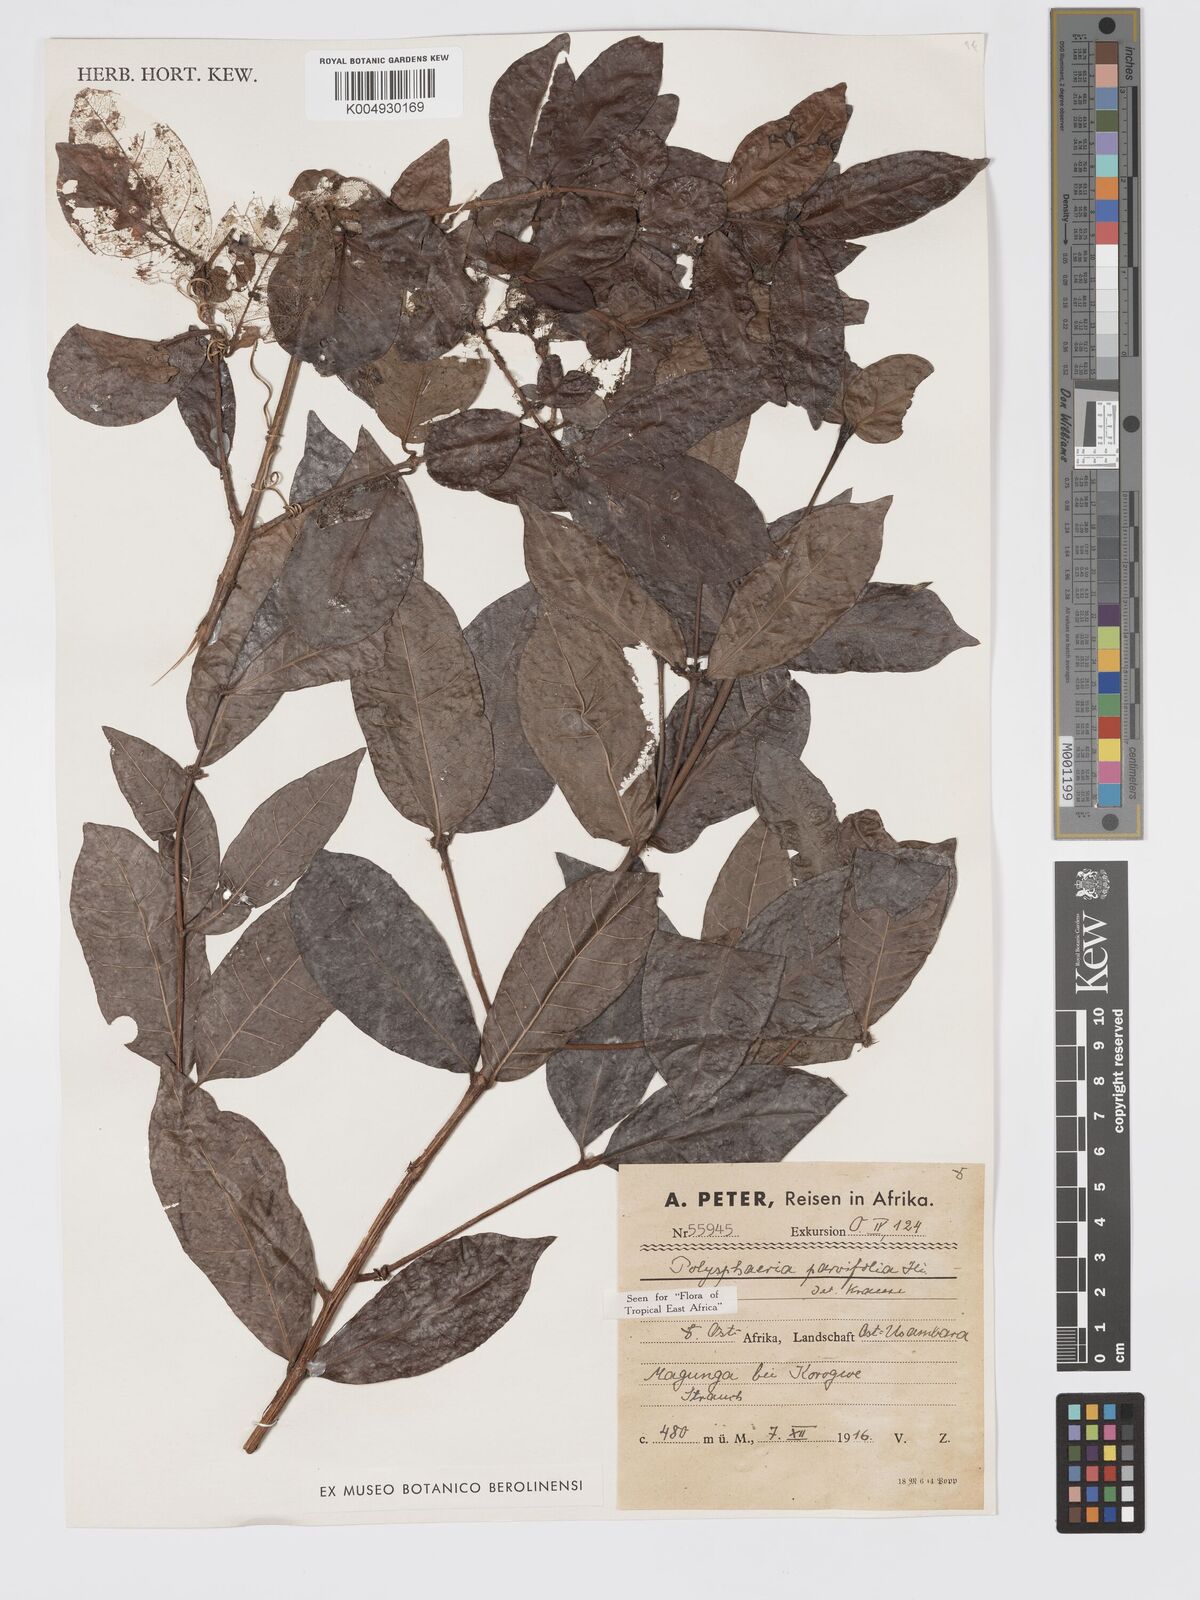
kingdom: Plantae
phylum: Tracheophyta
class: Magnoliopsida
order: Gentianales
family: Rubiaceae
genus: Polysphaeria
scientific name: Polysphaeria parvifolia
